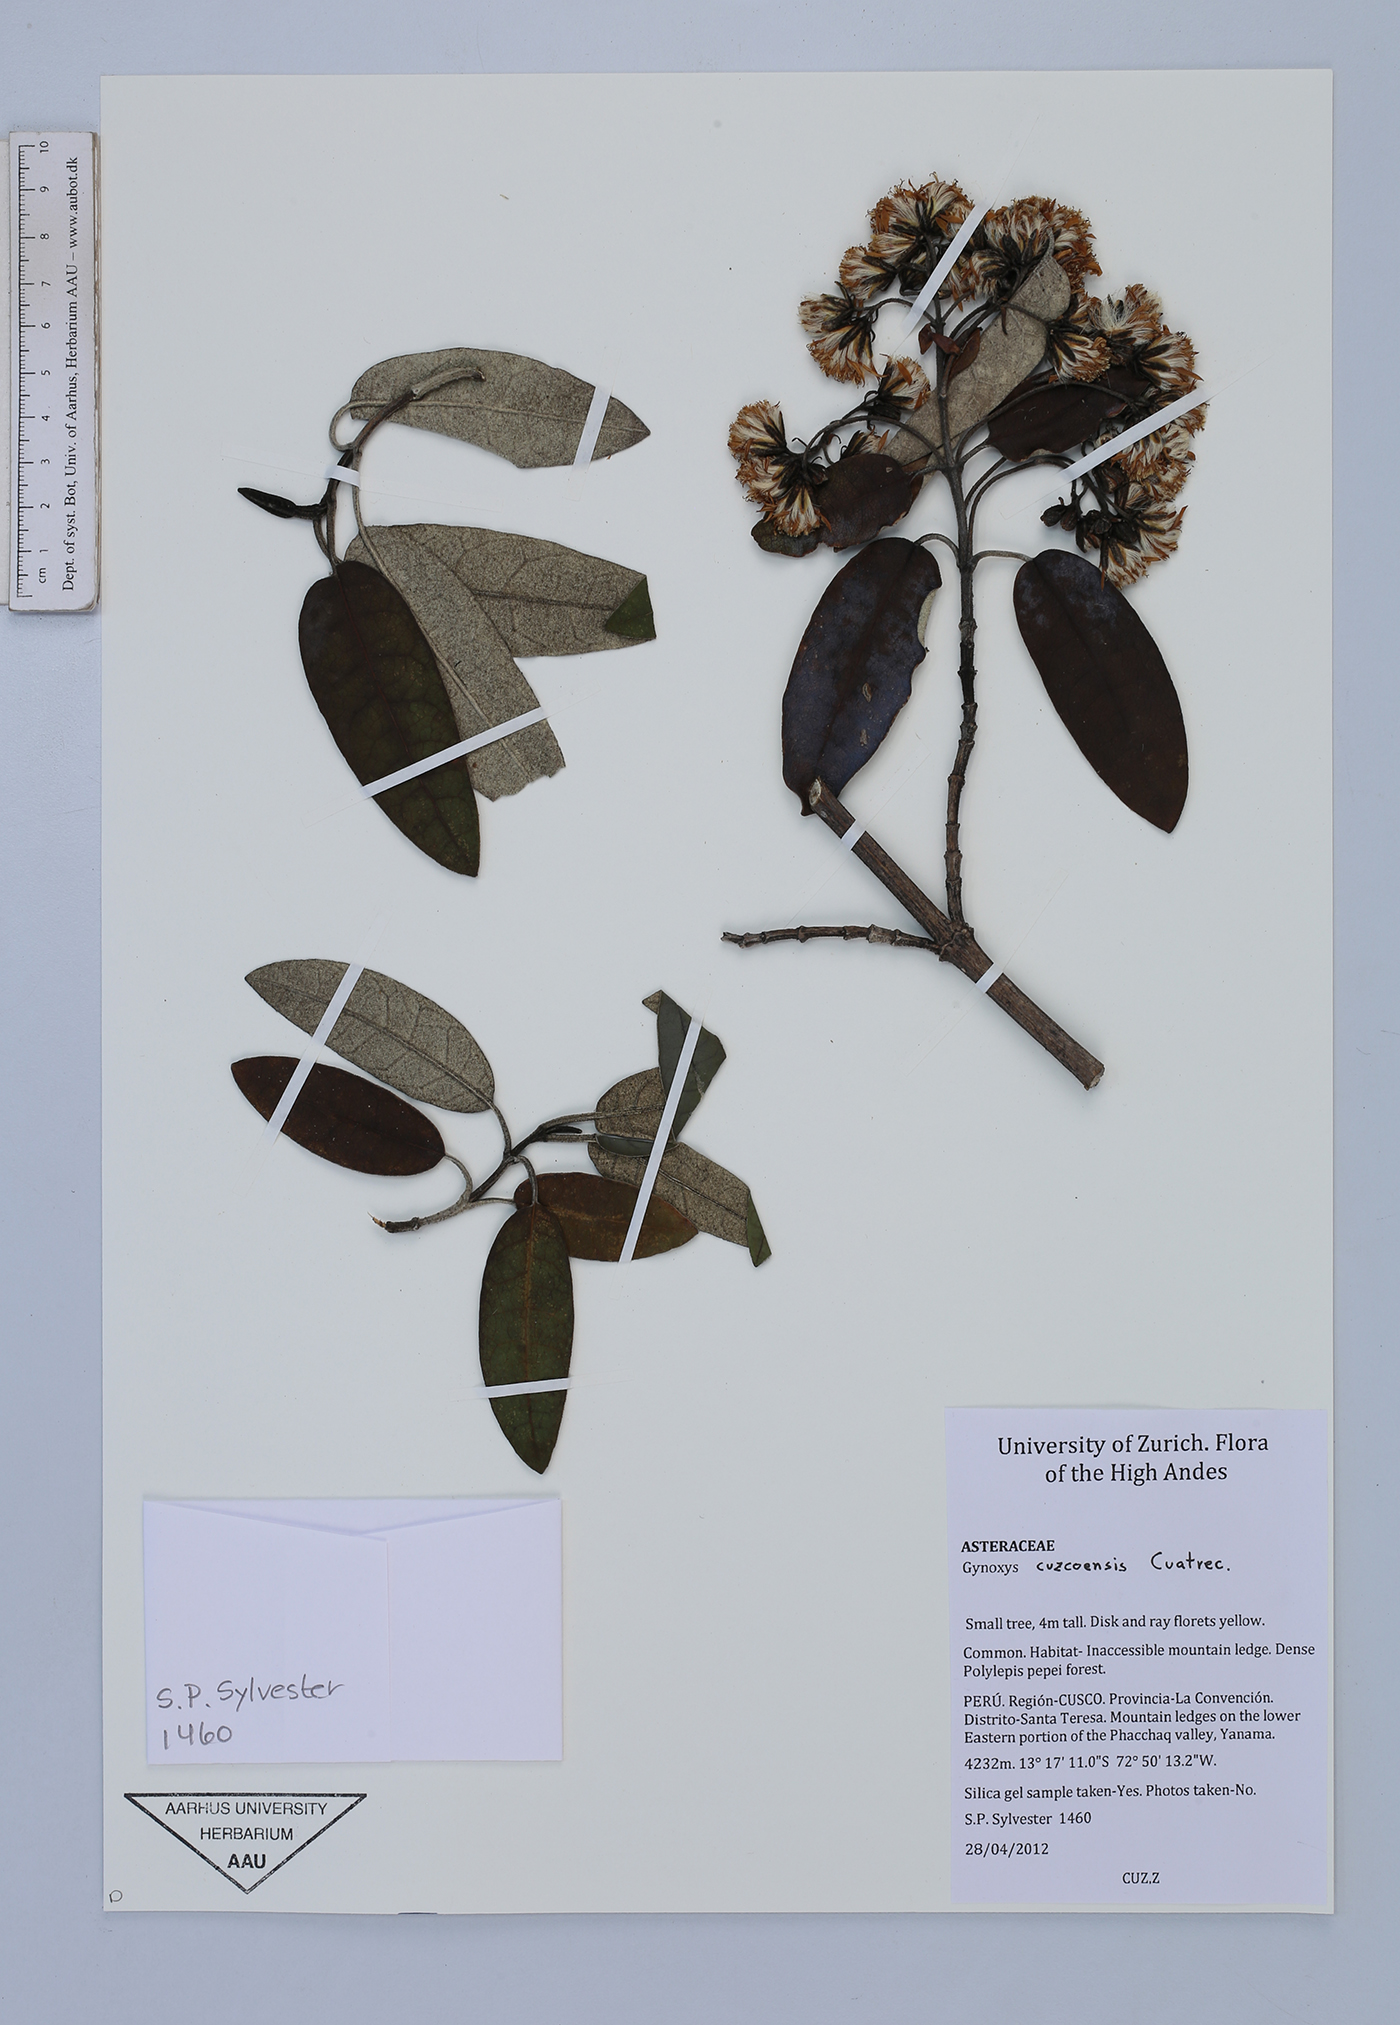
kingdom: Plantae
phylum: Tracheophyta
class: Magnoliopsida
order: Asterales
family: Asteraceae
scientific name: Asteraceae
